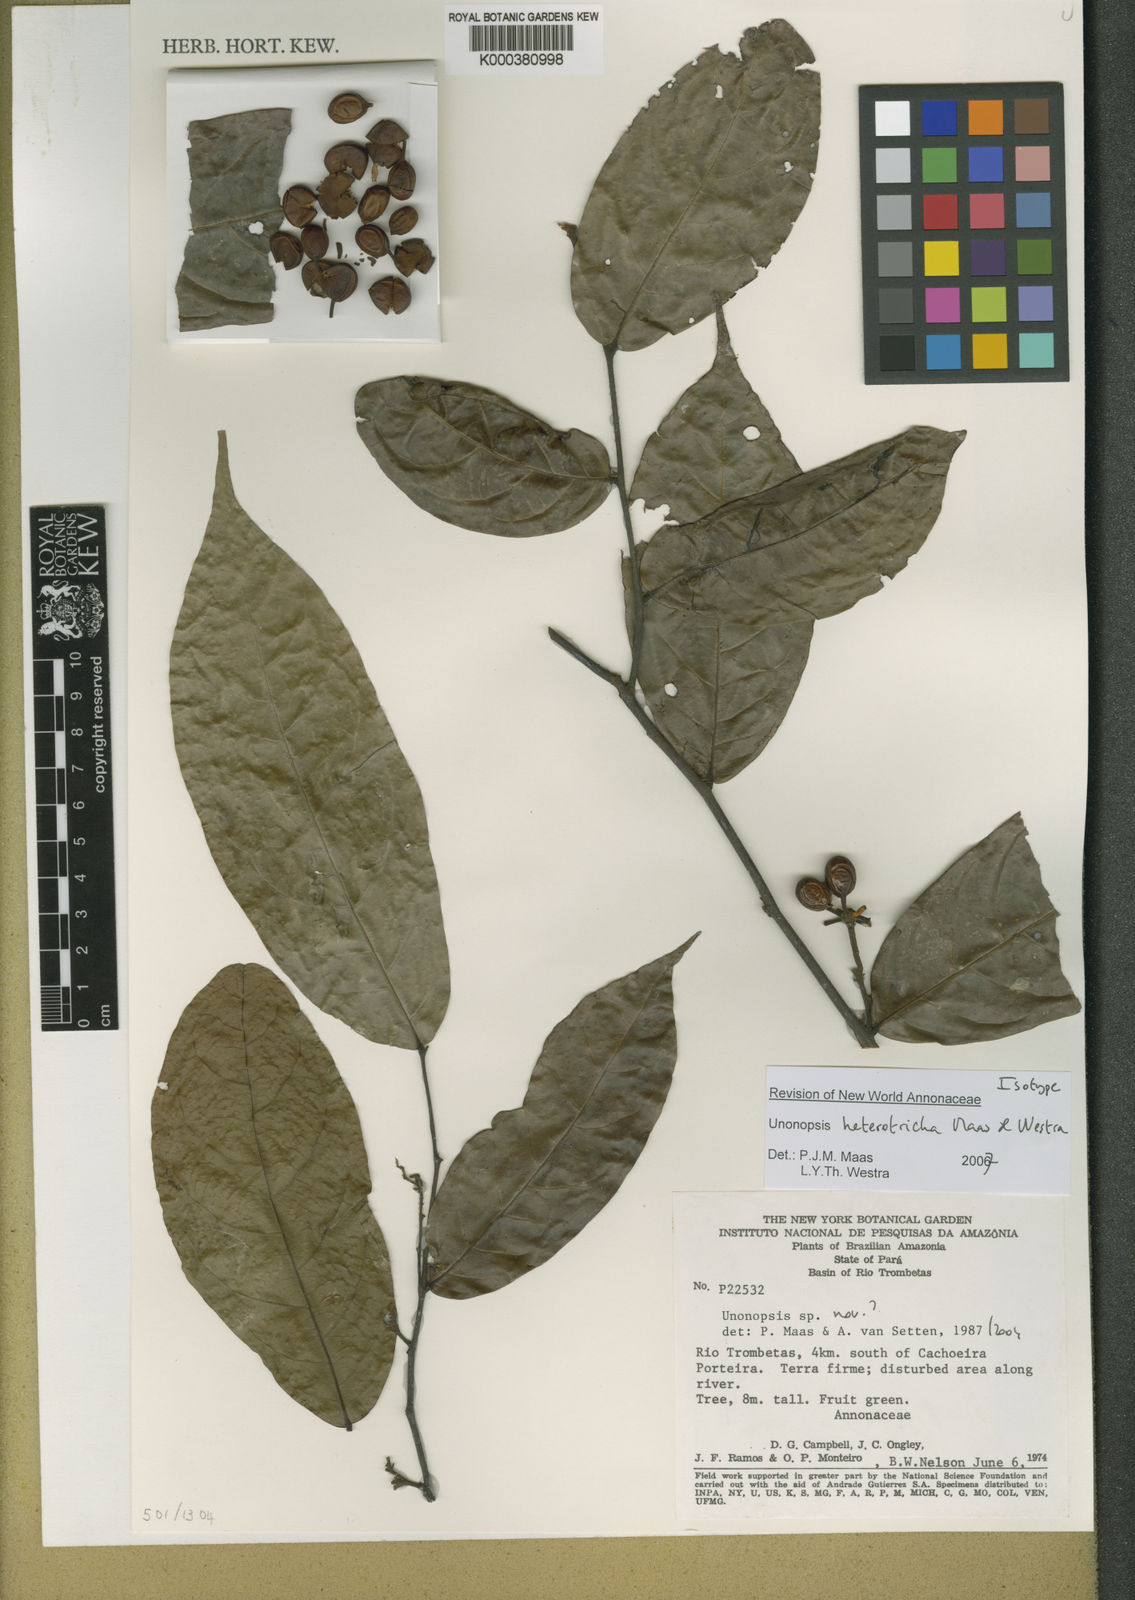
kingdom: Plantae
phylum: Tracheophyta
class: Magnoliopsida
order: Magnoliales
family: Annonaceae
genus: Unonopsis
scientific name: Unonopsis heterotricha
